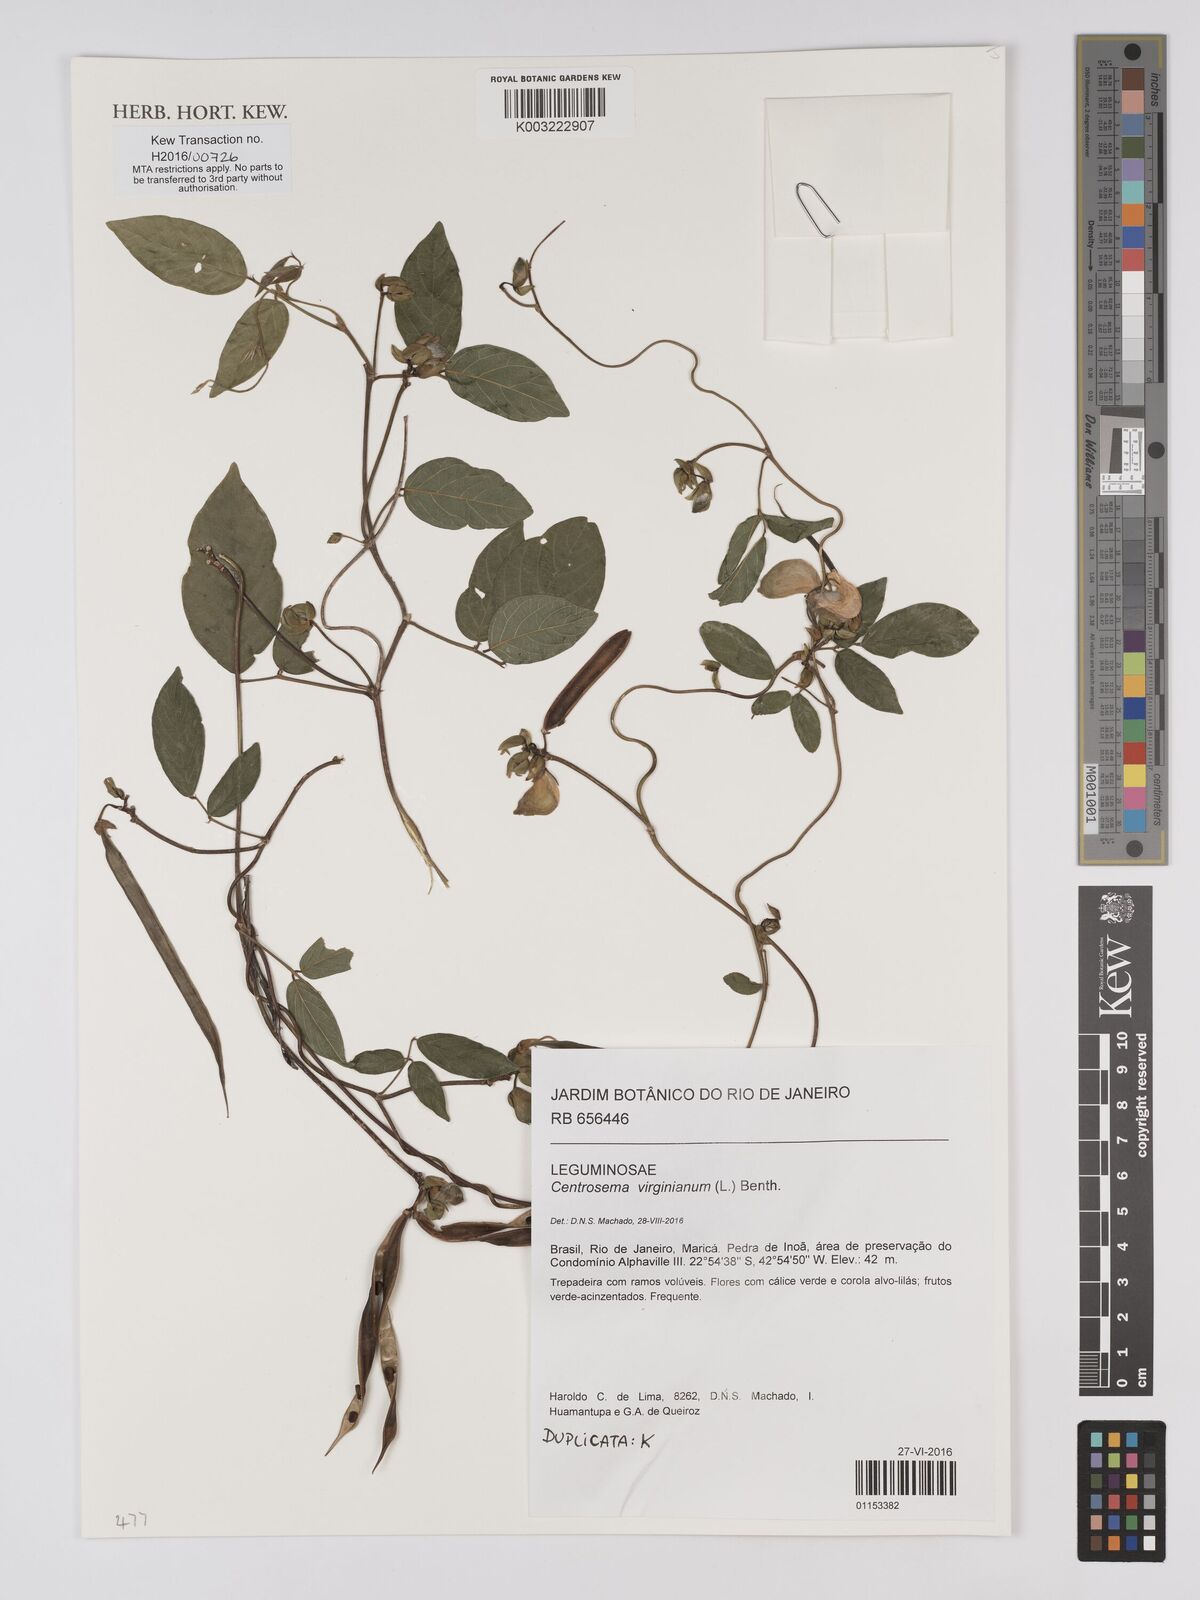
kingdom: Plantae
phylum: Tracheophyta
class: Magnoliopsida
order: Fabales
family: Fabaceae
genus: Centrosema
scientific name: Centrosema virginianum
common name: Butterfly-pea
